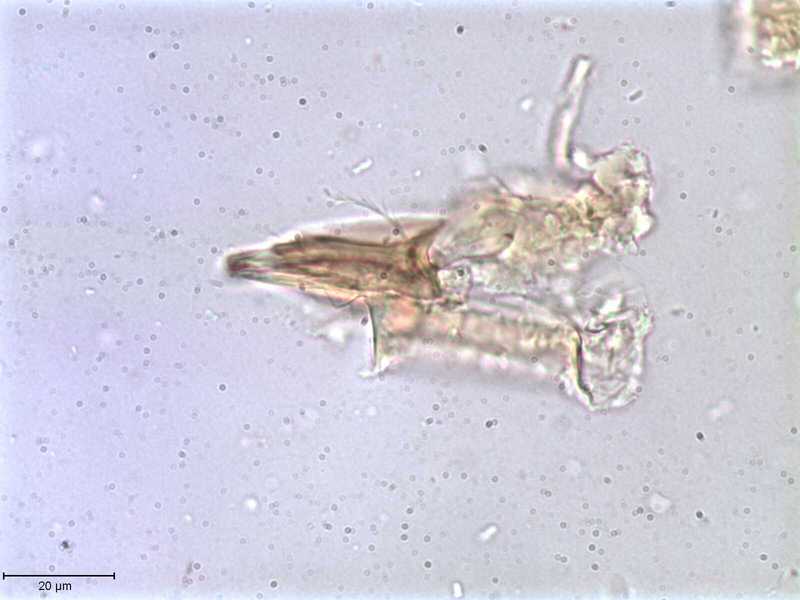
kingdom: Animalia
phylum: Arthropoda
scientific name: Arthropoda
